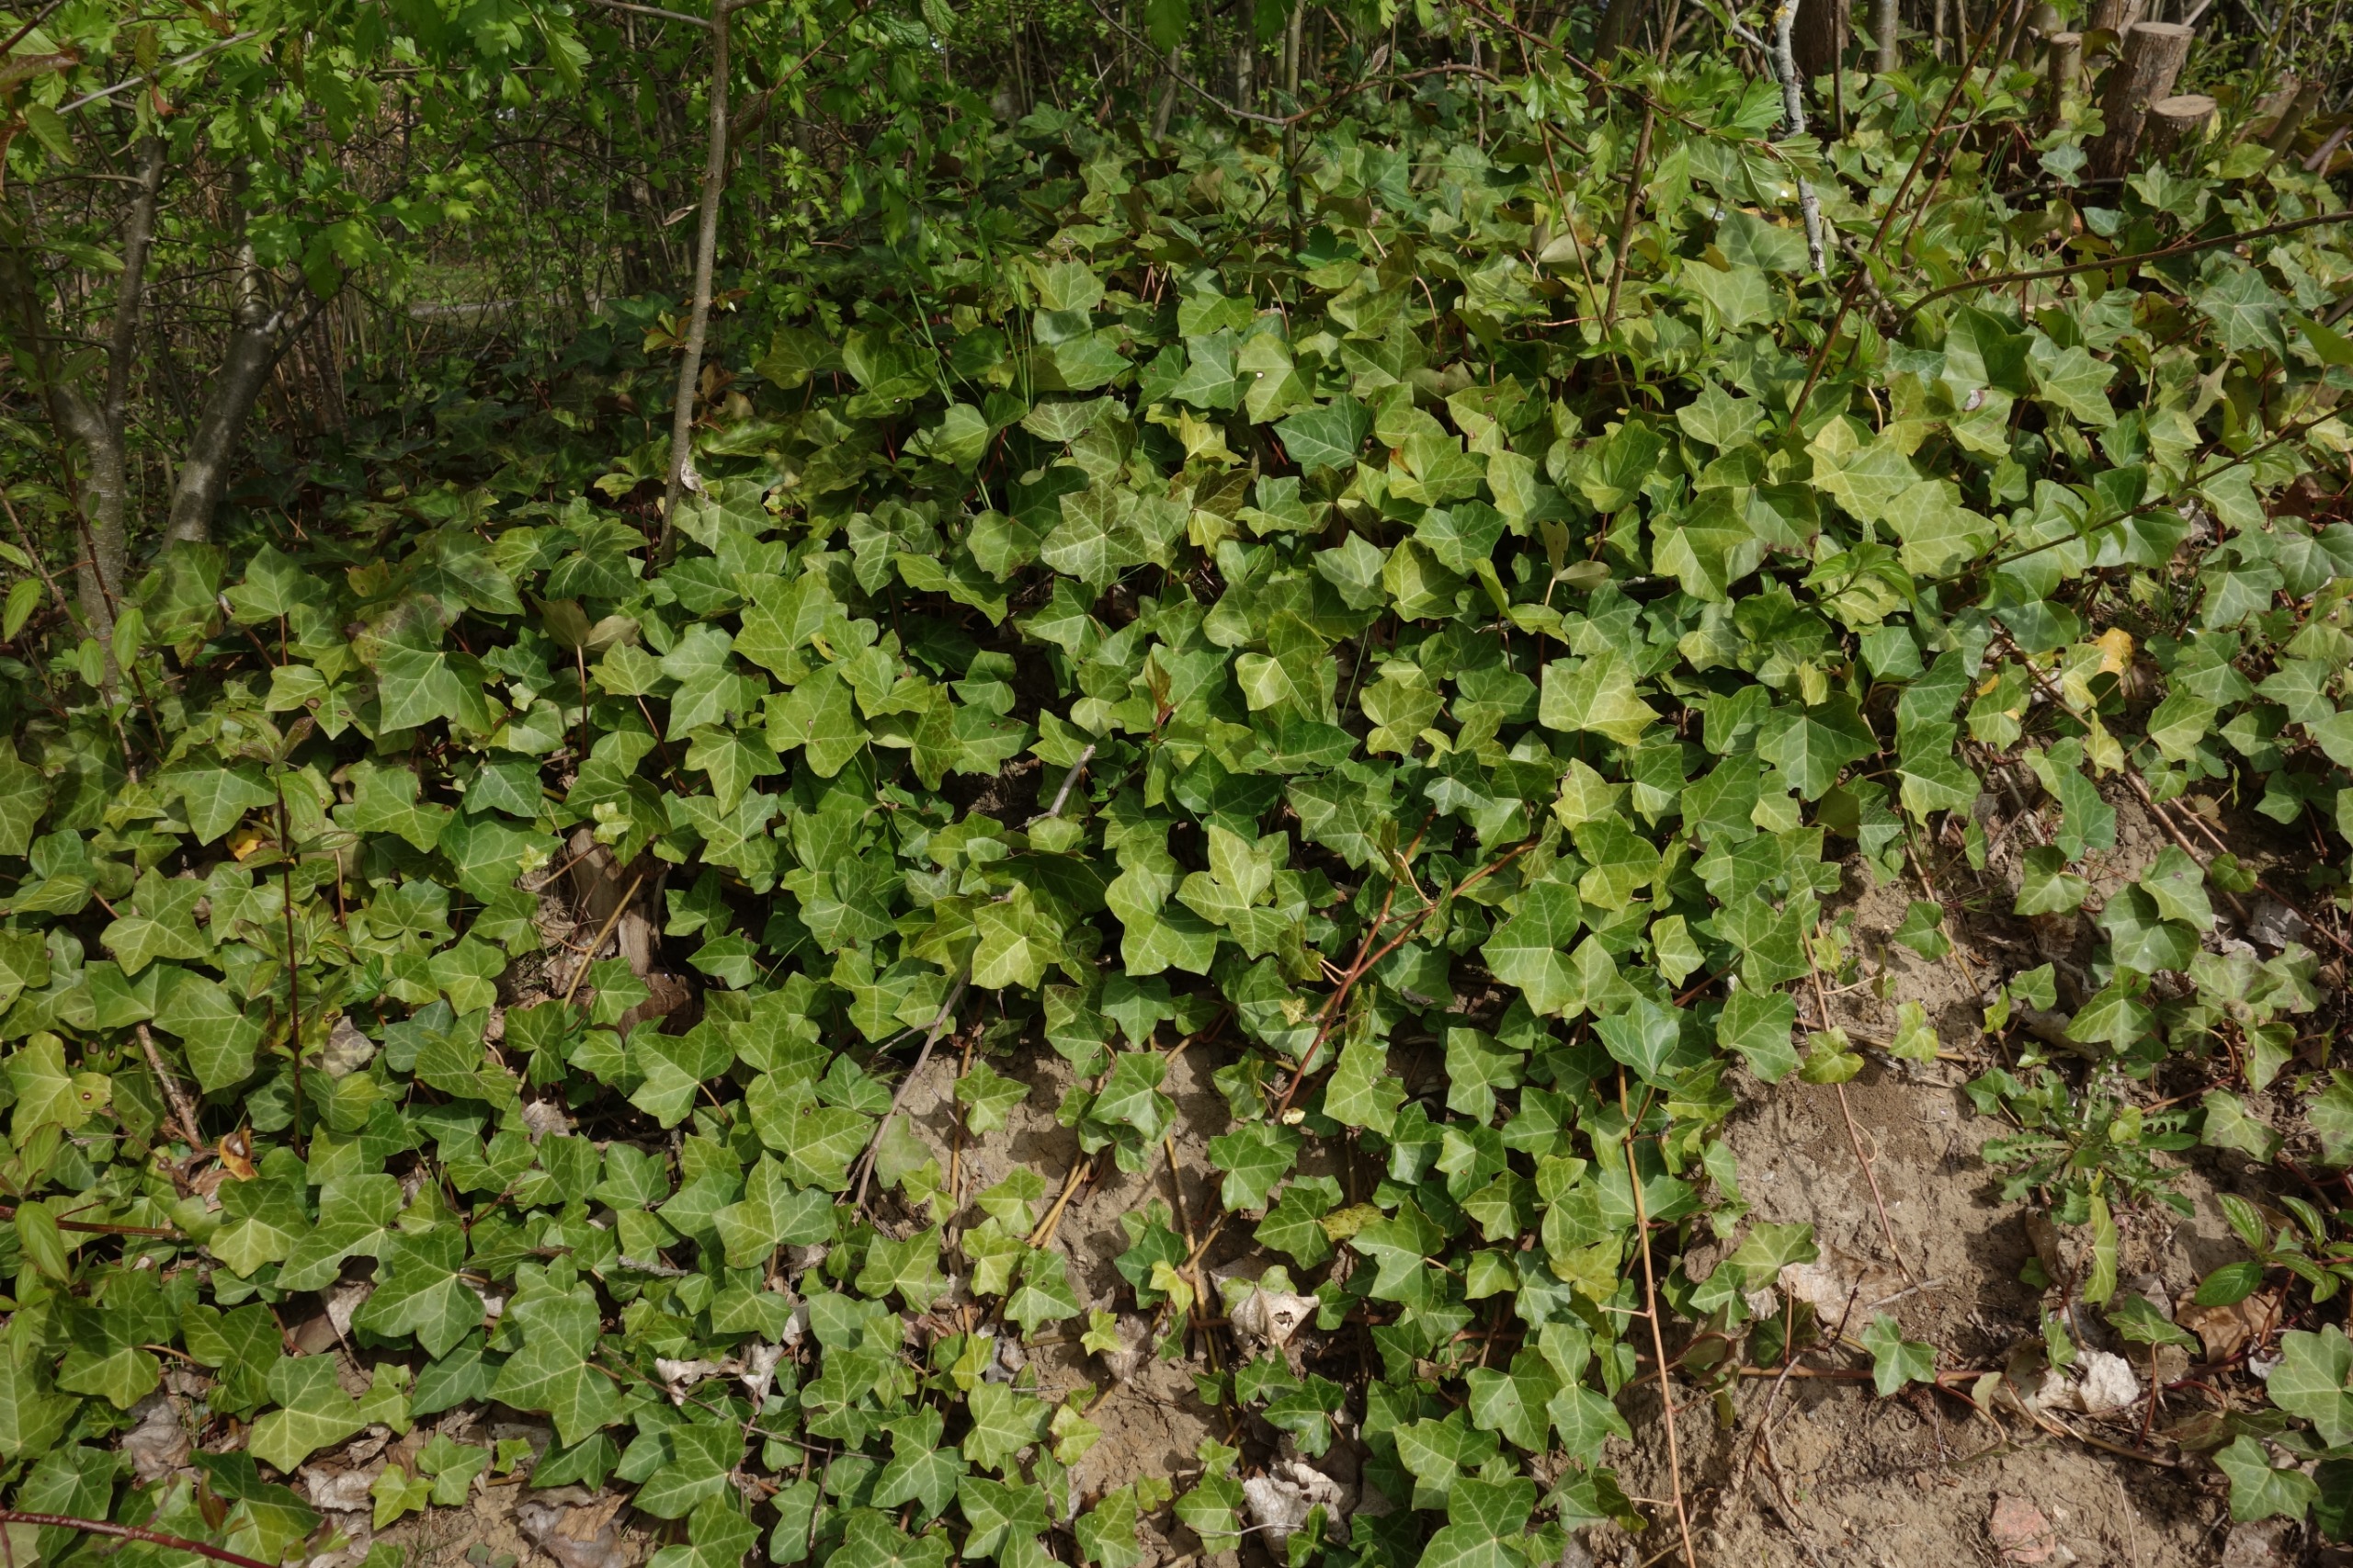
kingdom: Plantae
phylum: Tracheophyta
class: Magnoliopsida
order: Apiales
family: Araliaceae
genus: Hedera
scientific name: Hedera helix
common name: Vedbend
